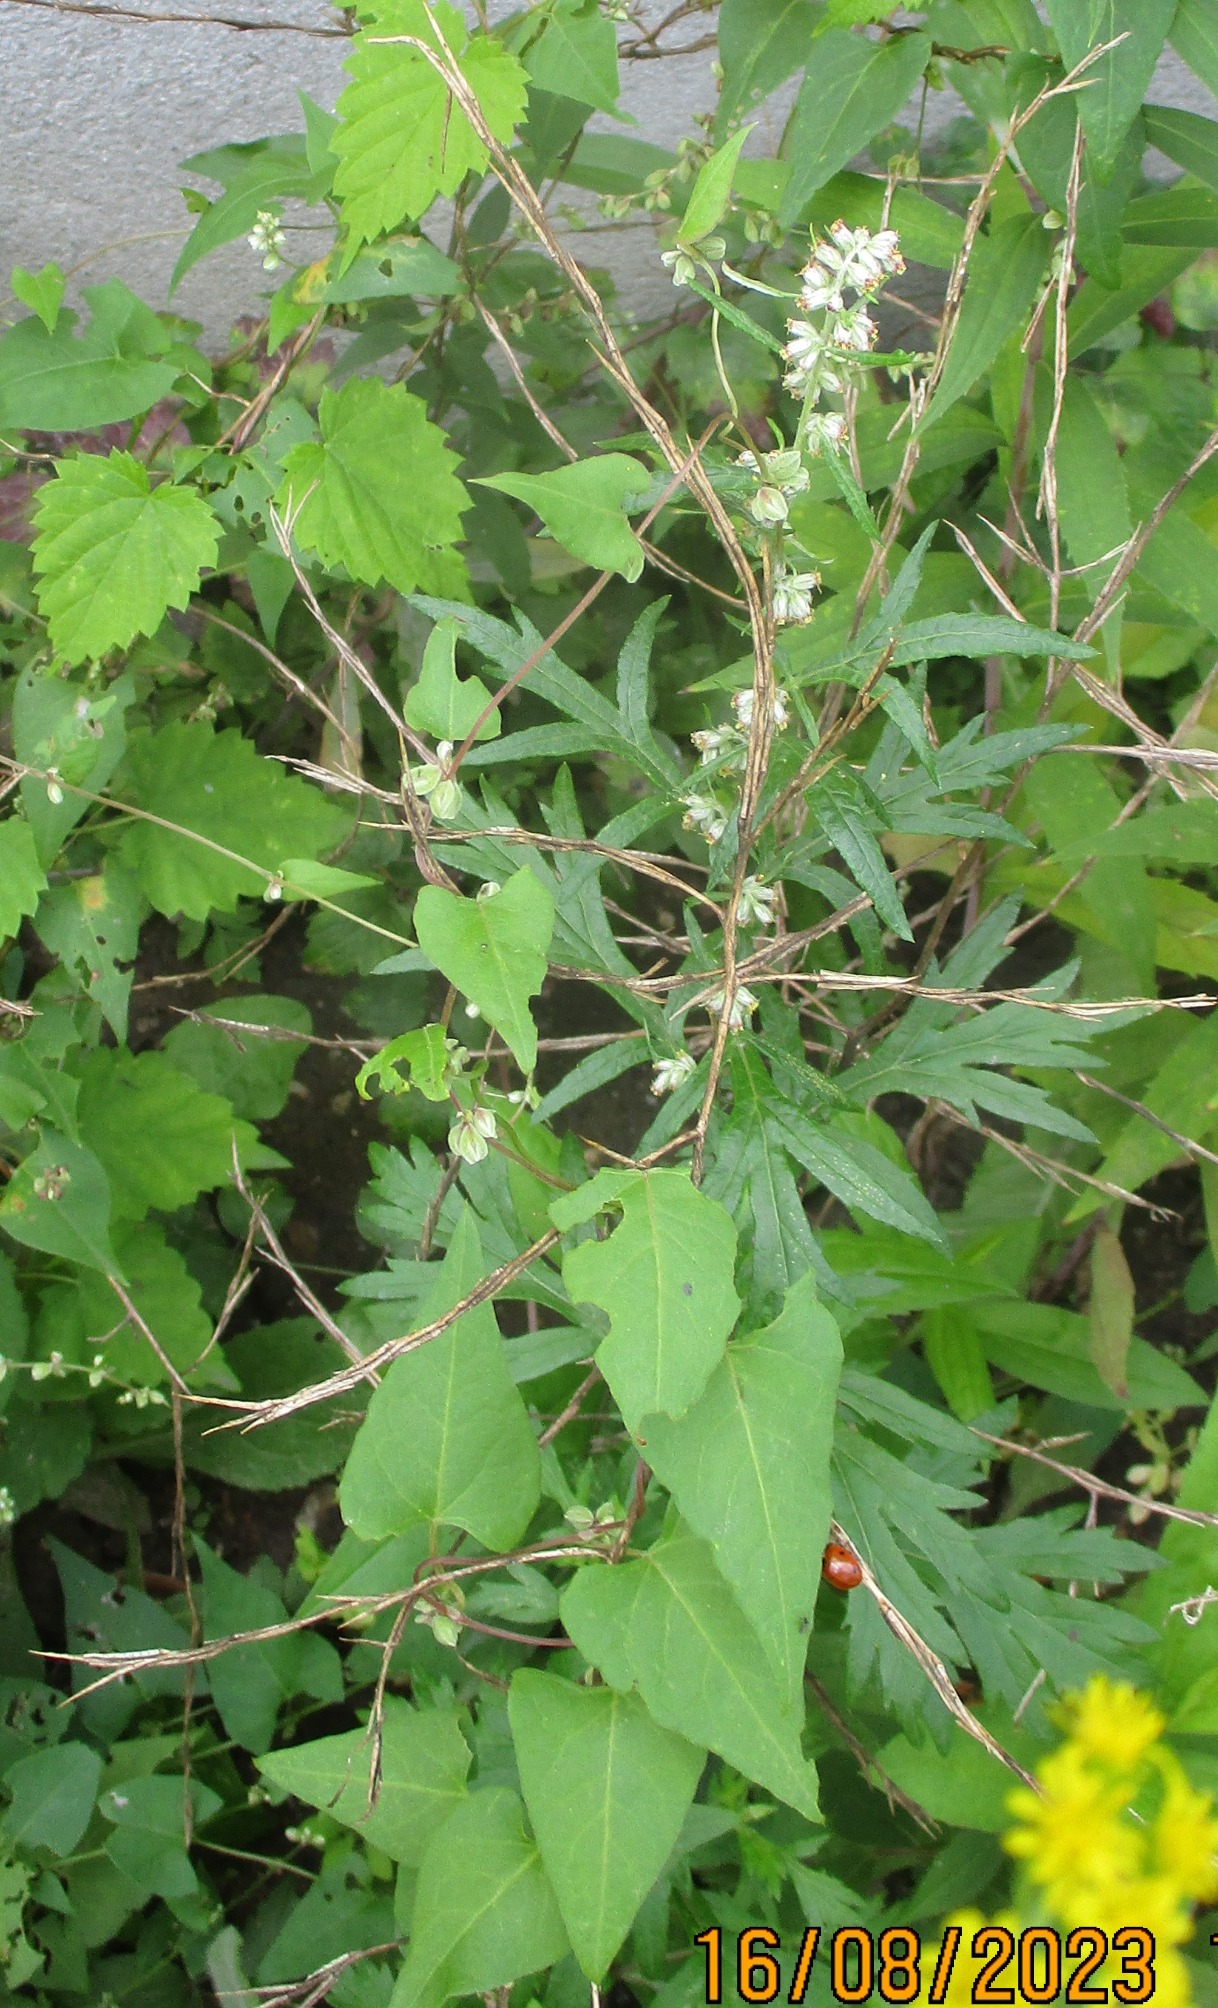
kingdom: Plantae
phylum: Tracheophyta
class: Magnoliopsida
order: Caryophyllales
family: Polygonaceae
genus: Fallopia
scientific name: Fallopia convolvulus
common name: Snerle-pileurt
